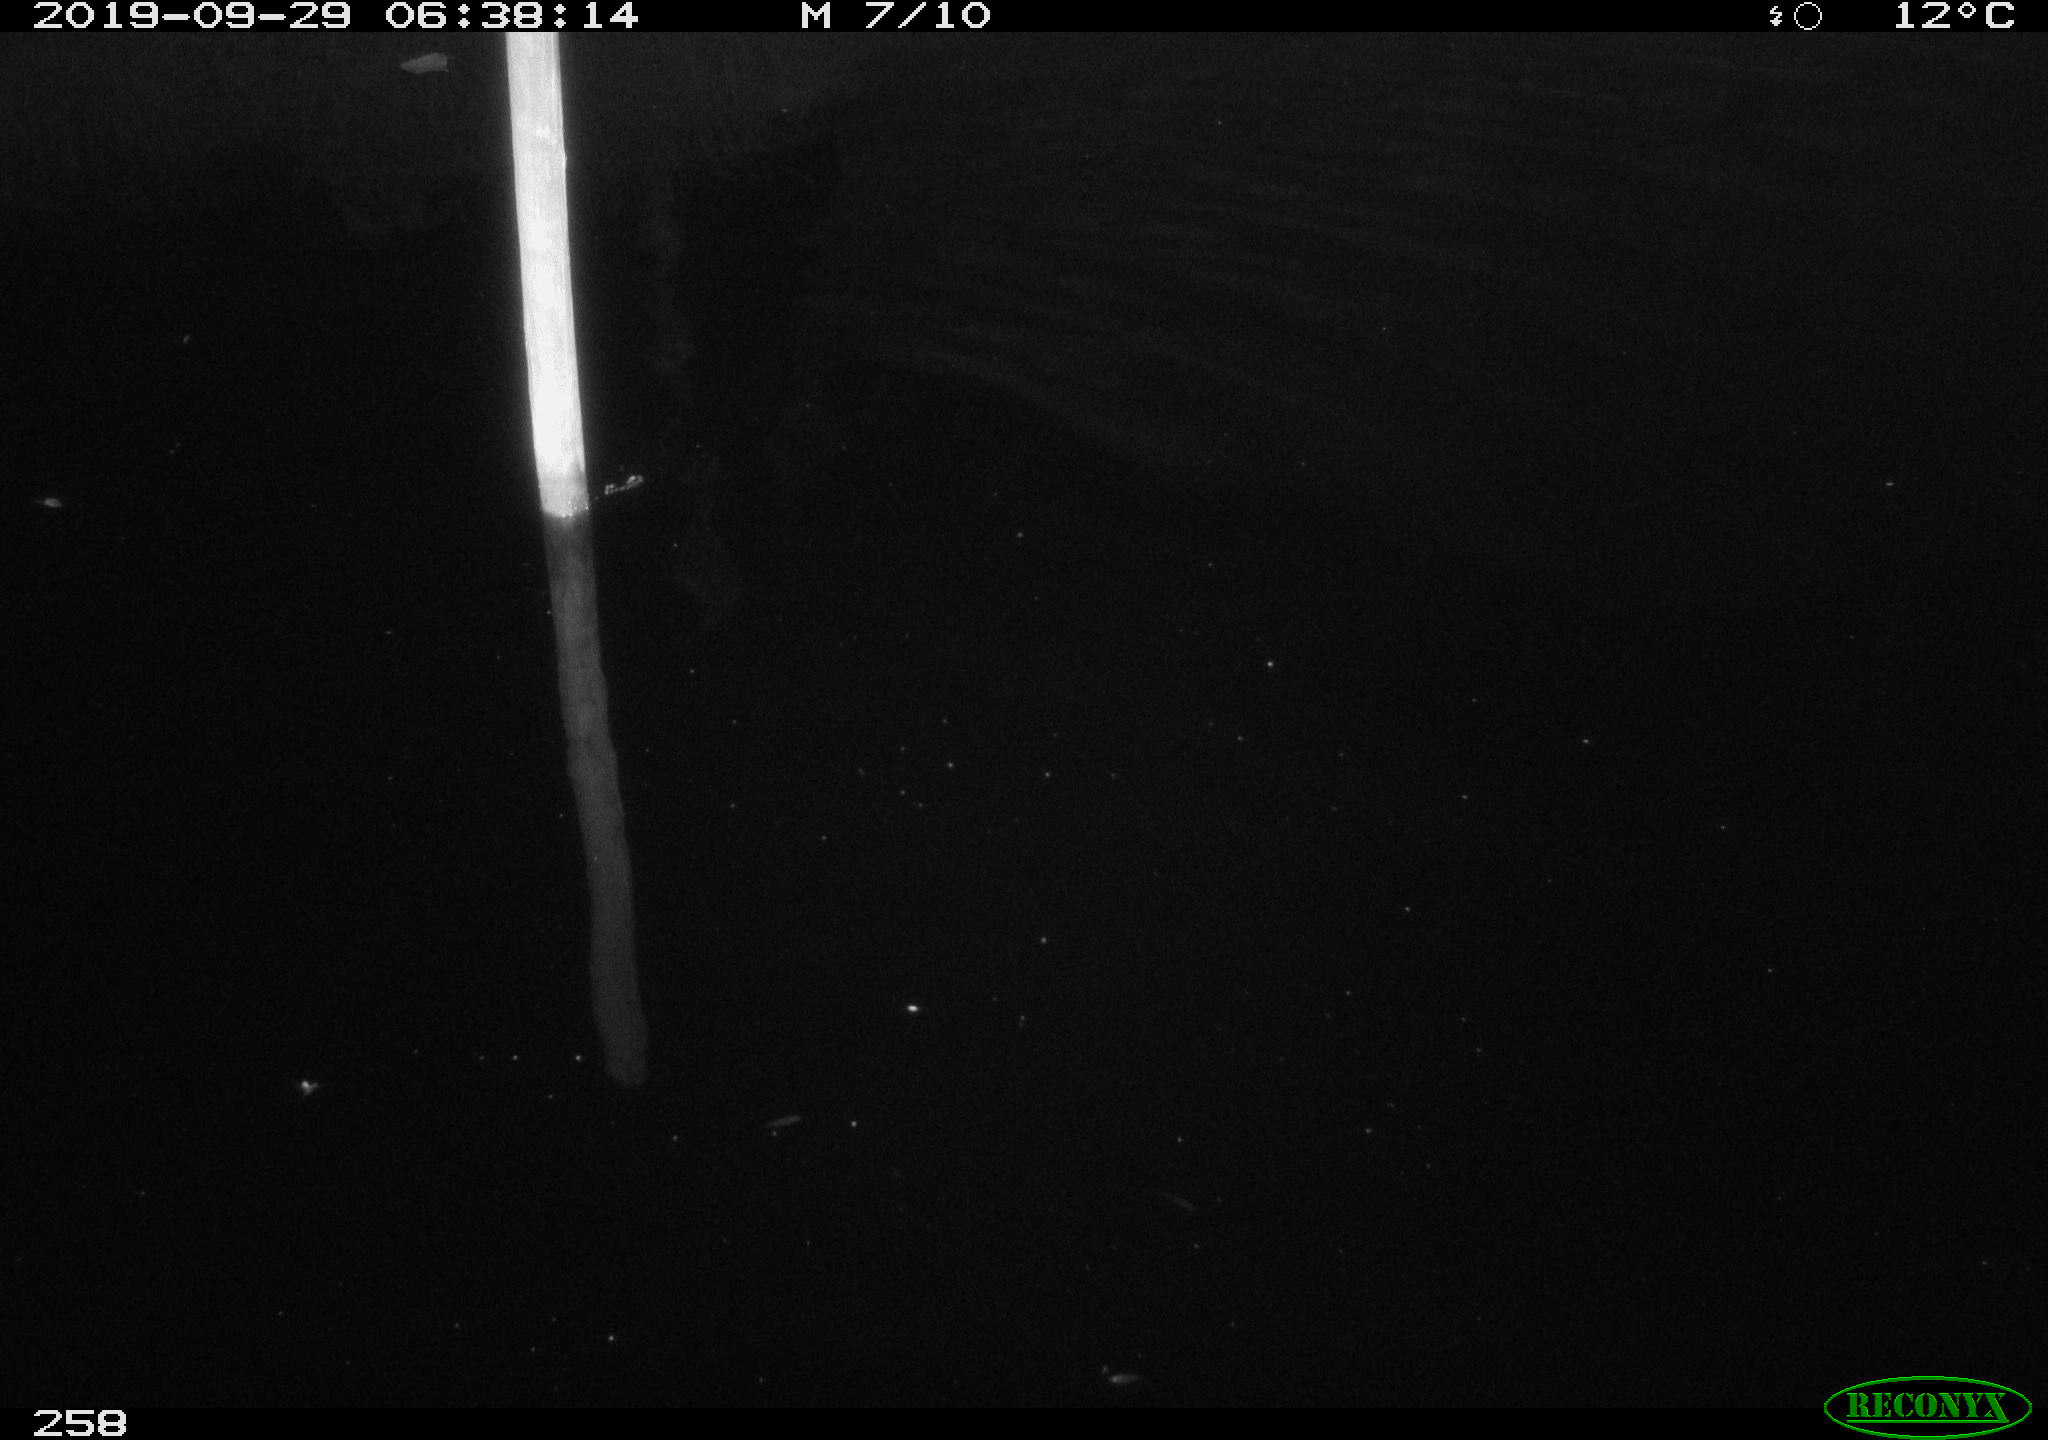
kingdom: Animalia
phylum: Chordata
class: Mammalia
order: Rodentia
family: Cricetidae
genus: Ondatra
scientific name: Ondatra zibethicus
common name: Muskrat
